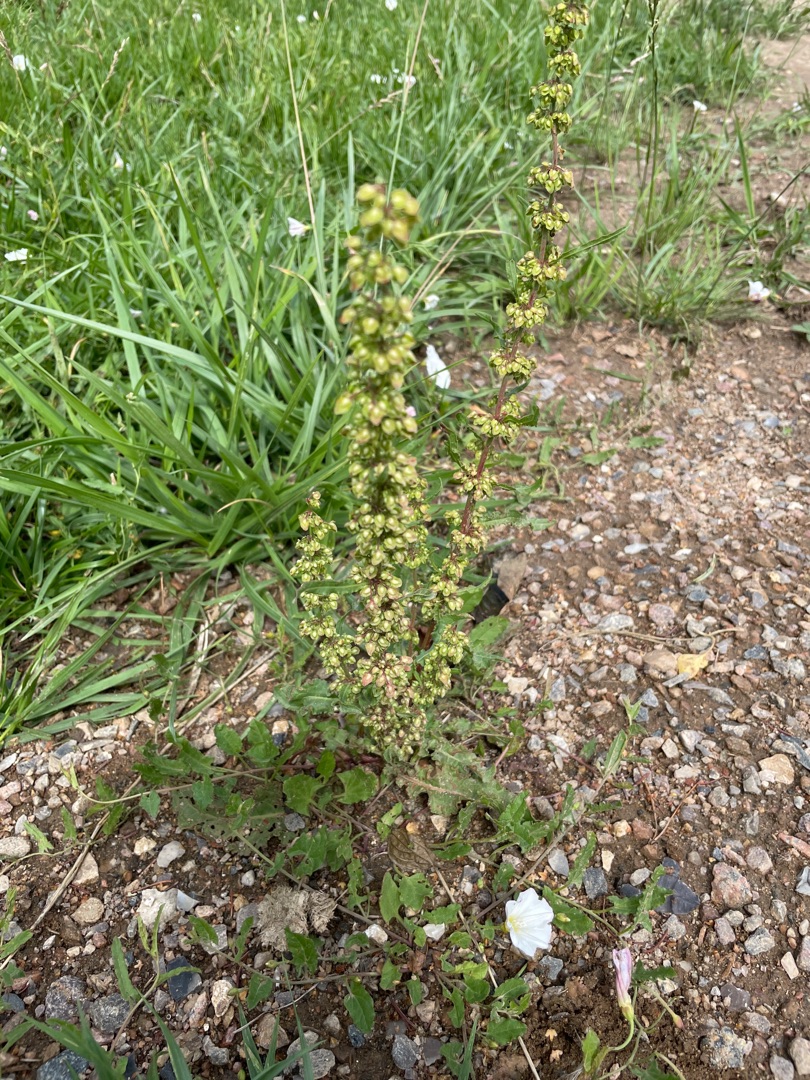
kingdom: Plantae
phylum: Tracheophyta
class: Magnoliopsida
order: Caryophyllales
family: Polygonaceae
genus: Rumex
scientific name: Rumex crispus
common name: Kruset skræppe
